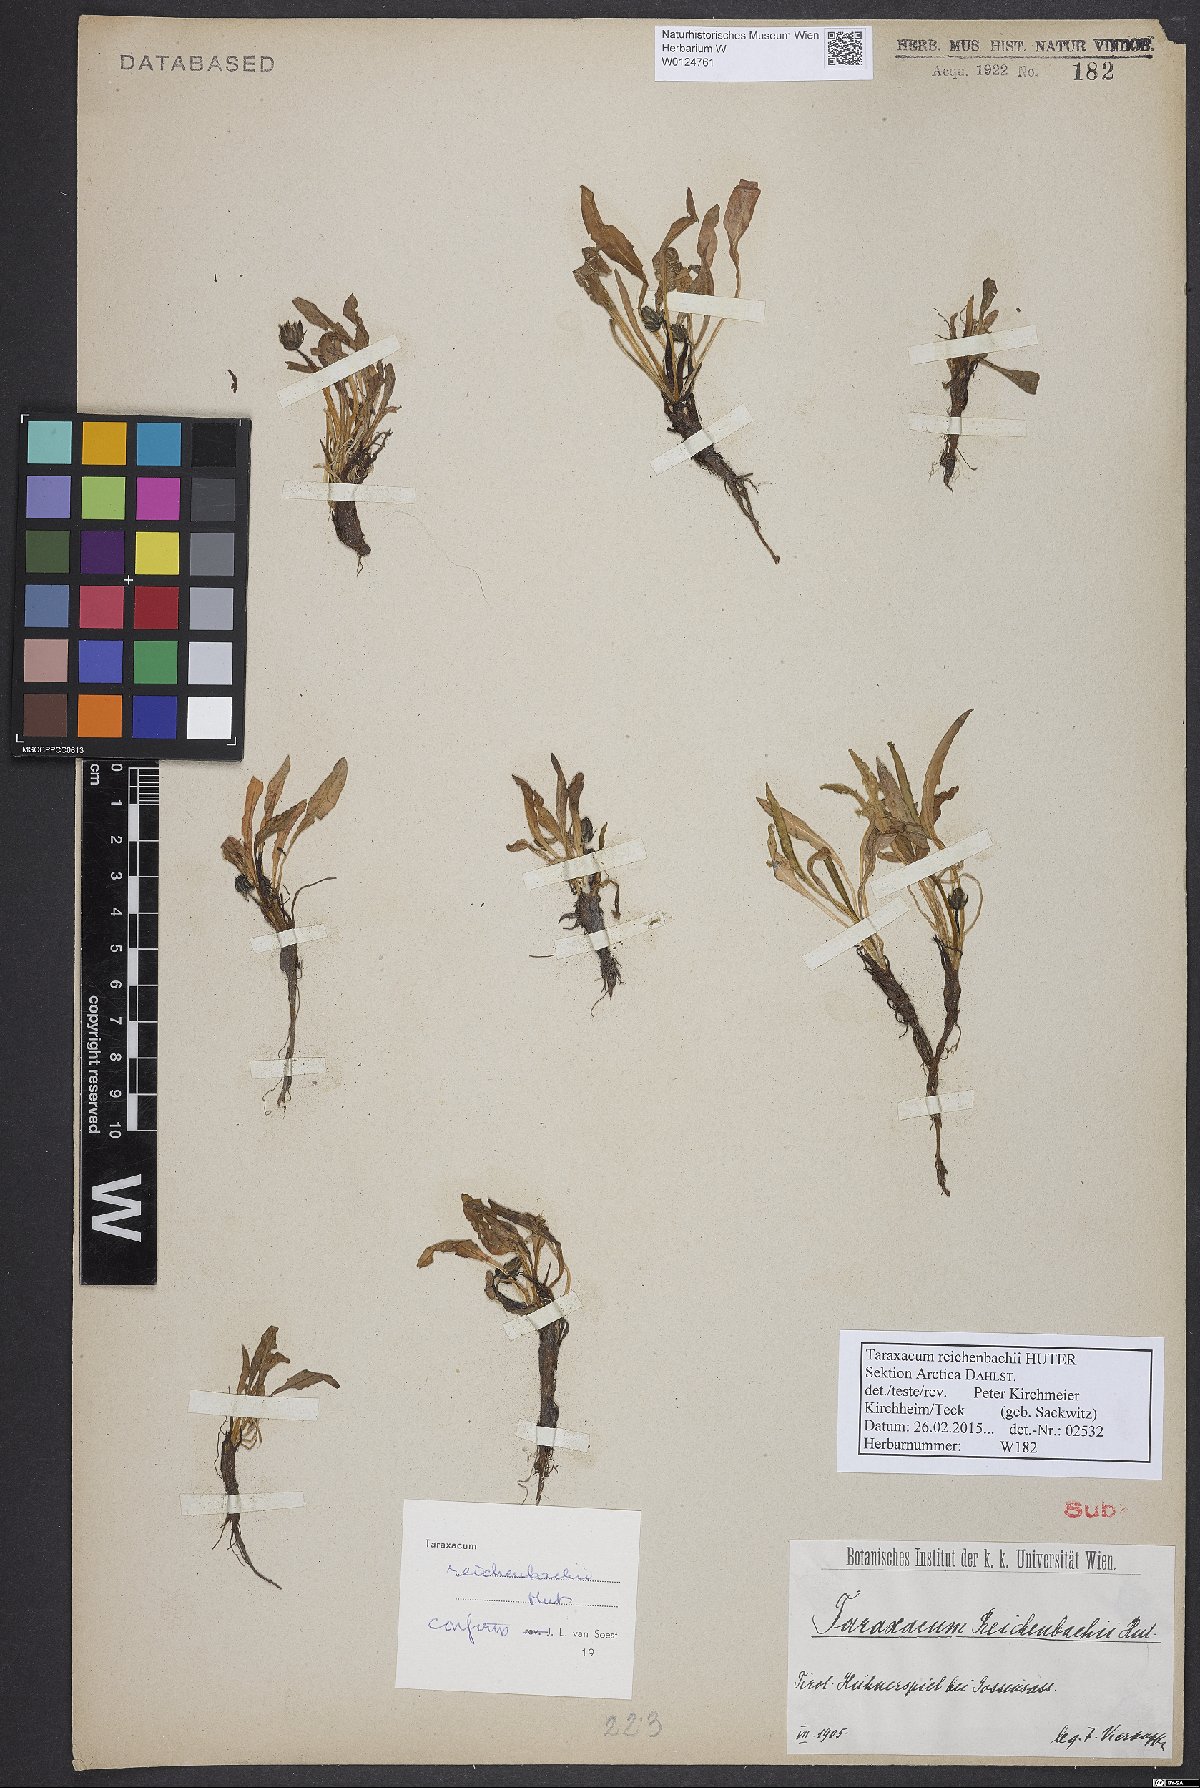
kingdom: Plantae
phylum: Tracheophyta
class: Magnoliopsida
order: Asterales
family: Asteraceae
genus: Taraxacum
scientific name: Taraxacum reichenbachii
